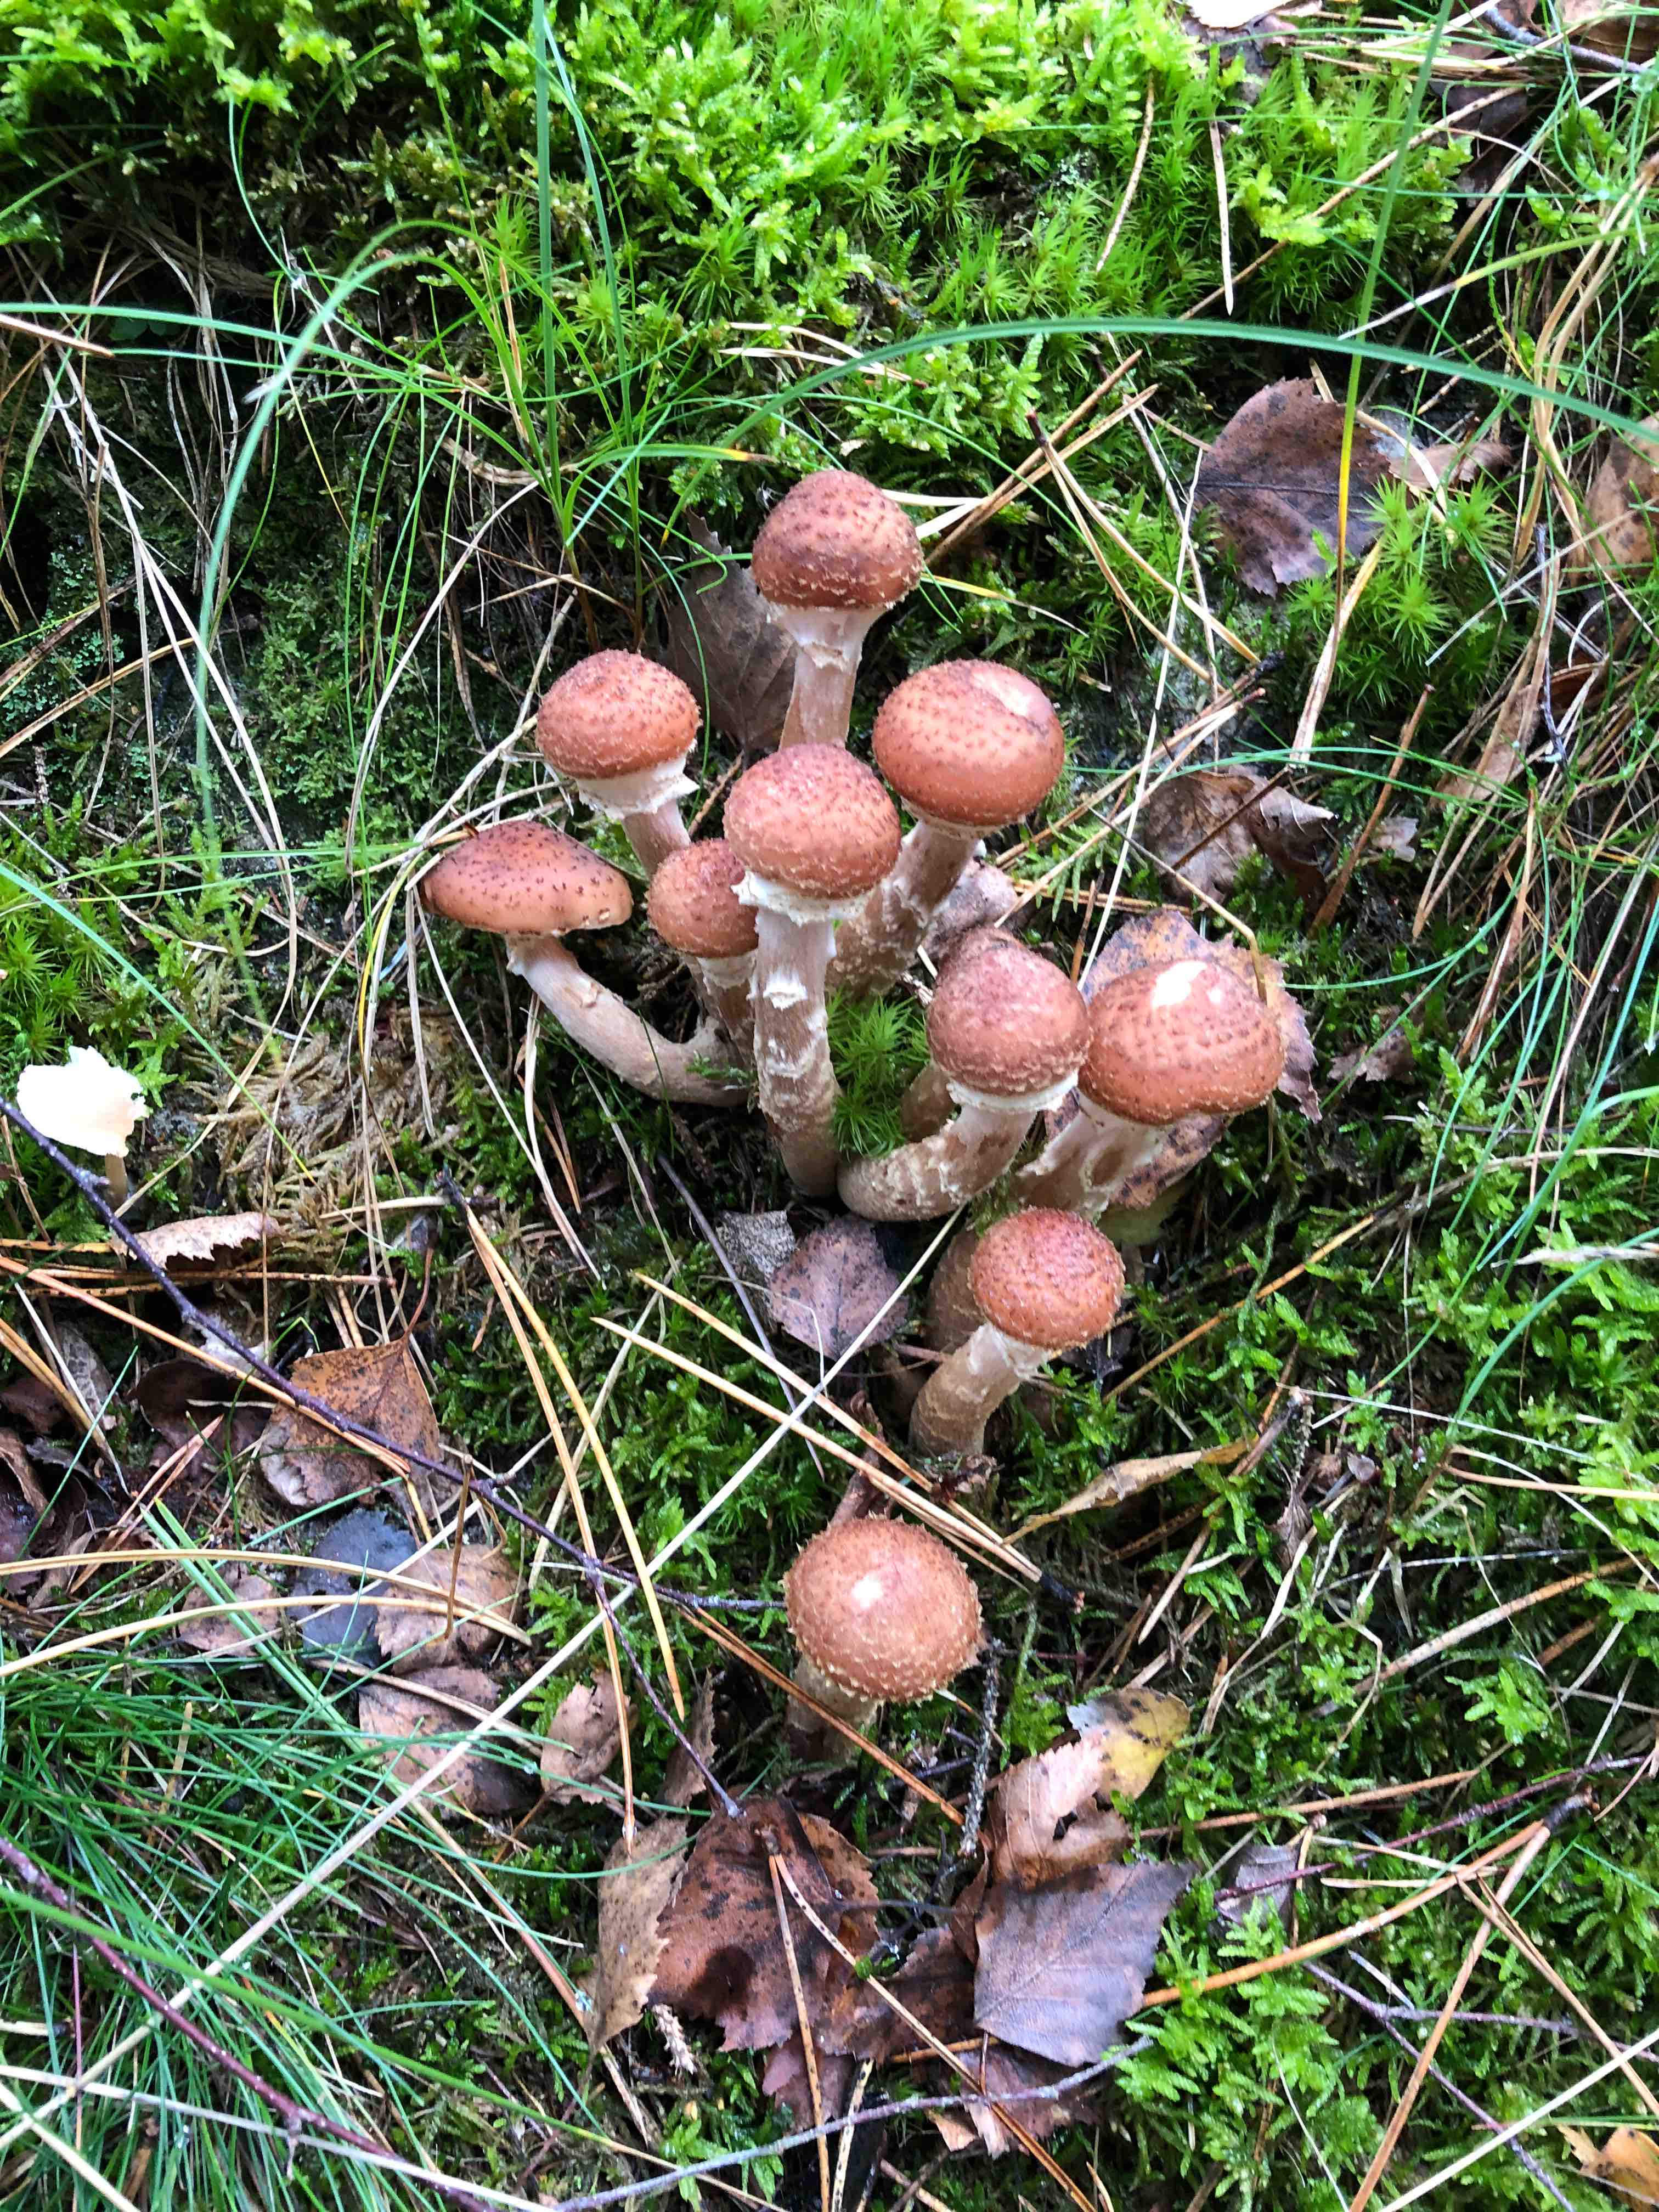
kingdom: Fungi
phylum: Basidiomycota
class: Agaricomycetes
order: Agaricales
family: Physalacriaceae
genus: Armillaria
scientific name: Armillaria ostoyae
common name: mørk honningsvamp
